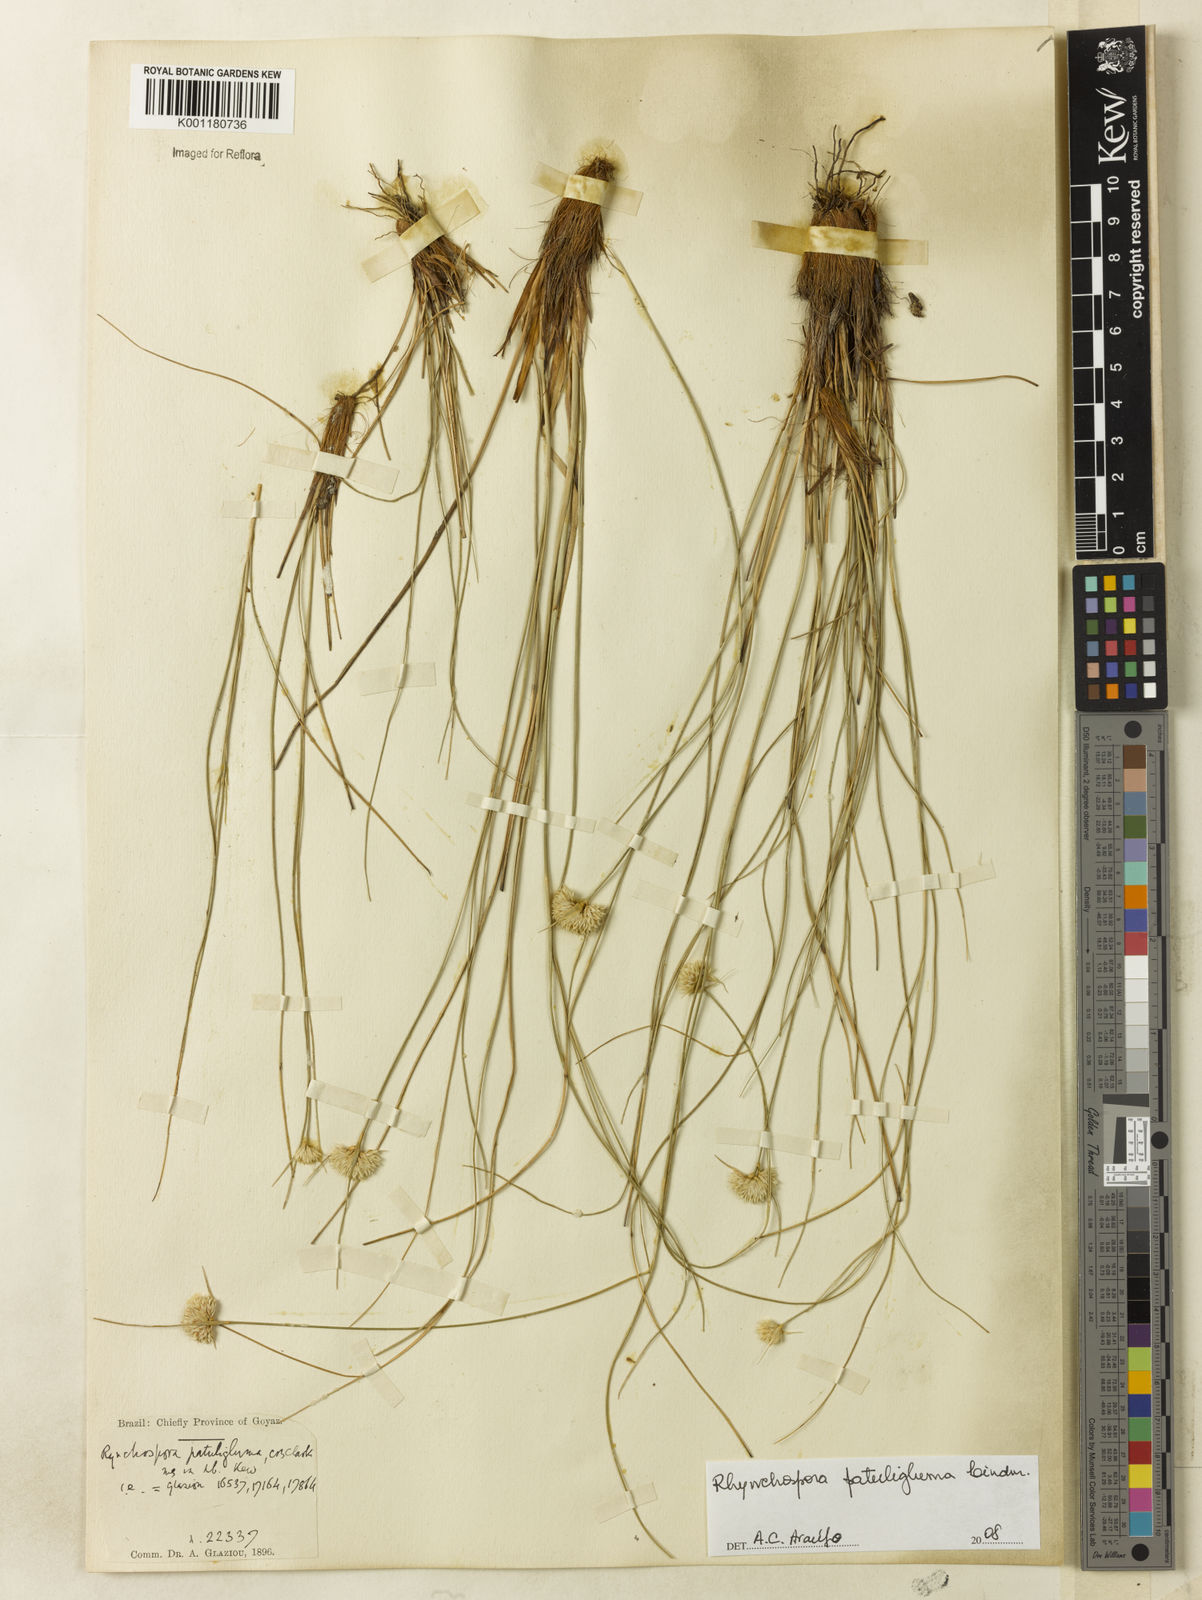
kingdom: Plantae
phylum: Tracheophyta
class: Liliopsida
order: Poales
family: Cyperaceae
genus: Rhynchospora
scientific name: Rhynchospora patuligluma
